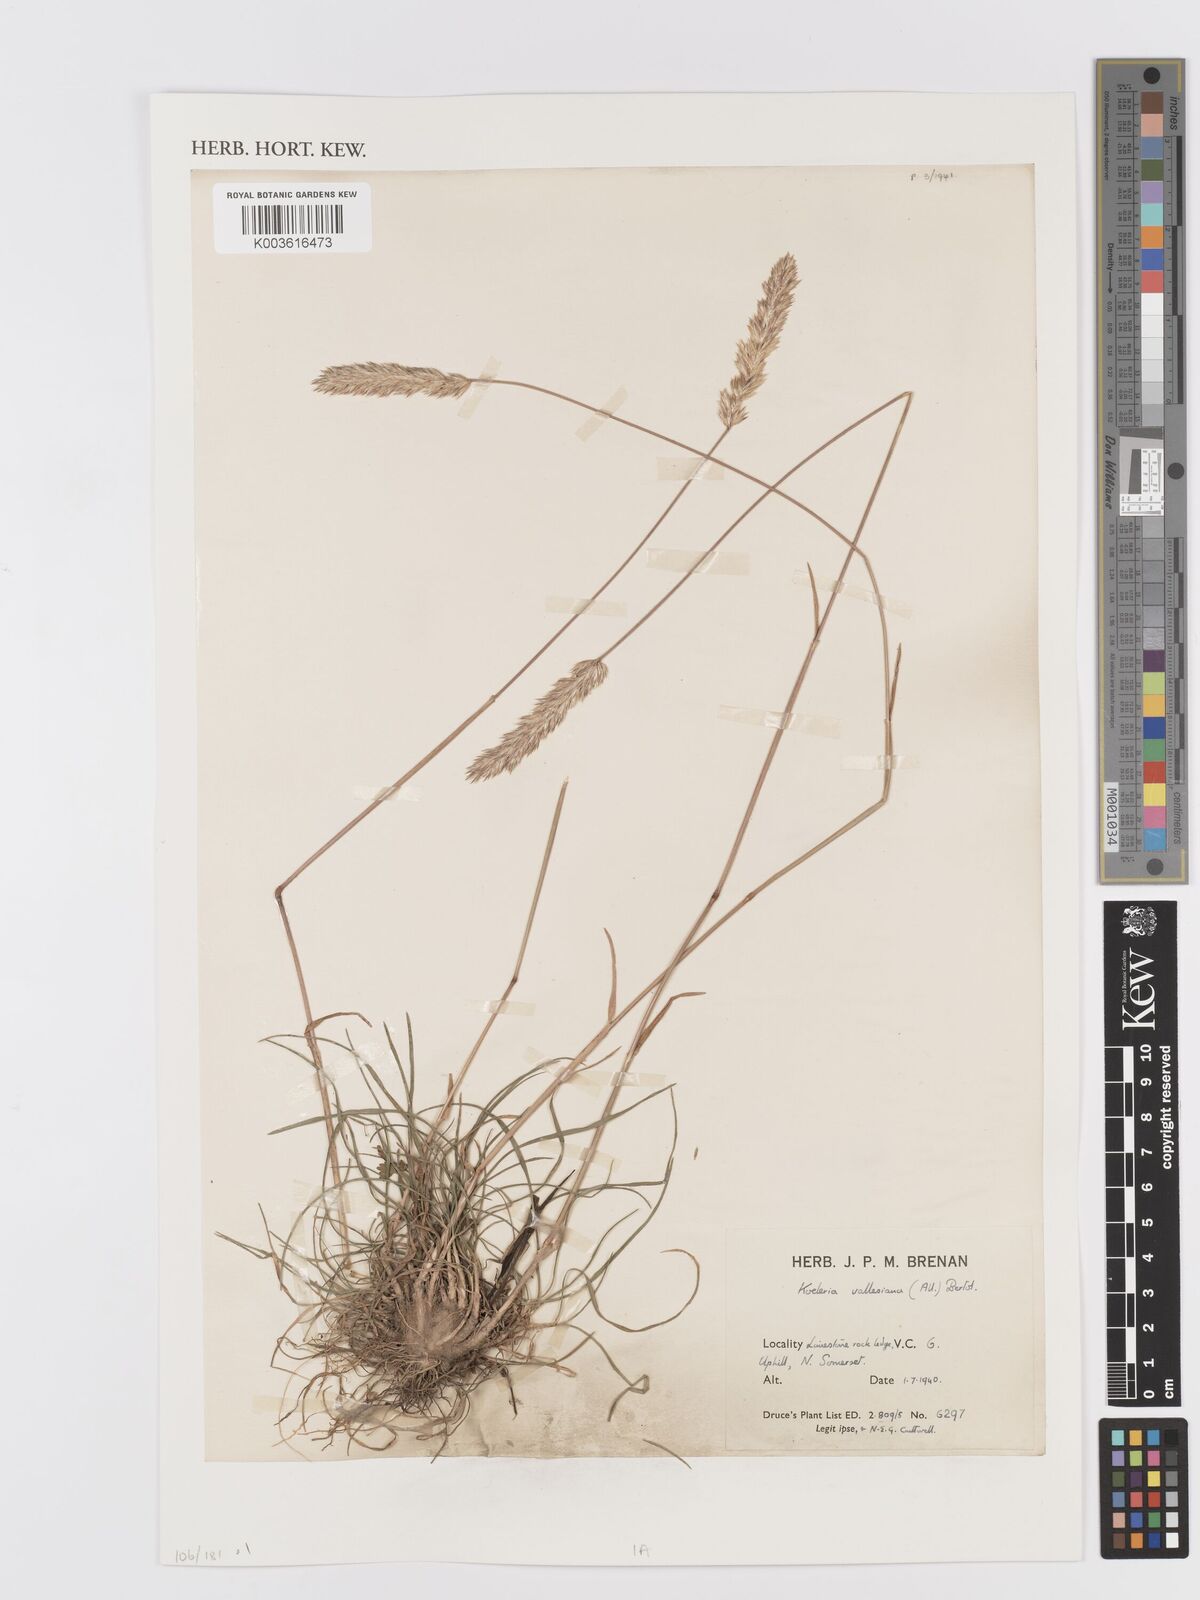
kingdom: Plantae
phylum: Tracheophyta
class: Liliopsida
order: Poales
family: Poaceae
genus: Koeleria
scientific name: Koeleria vallesiana
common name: Somerset hair-grass
